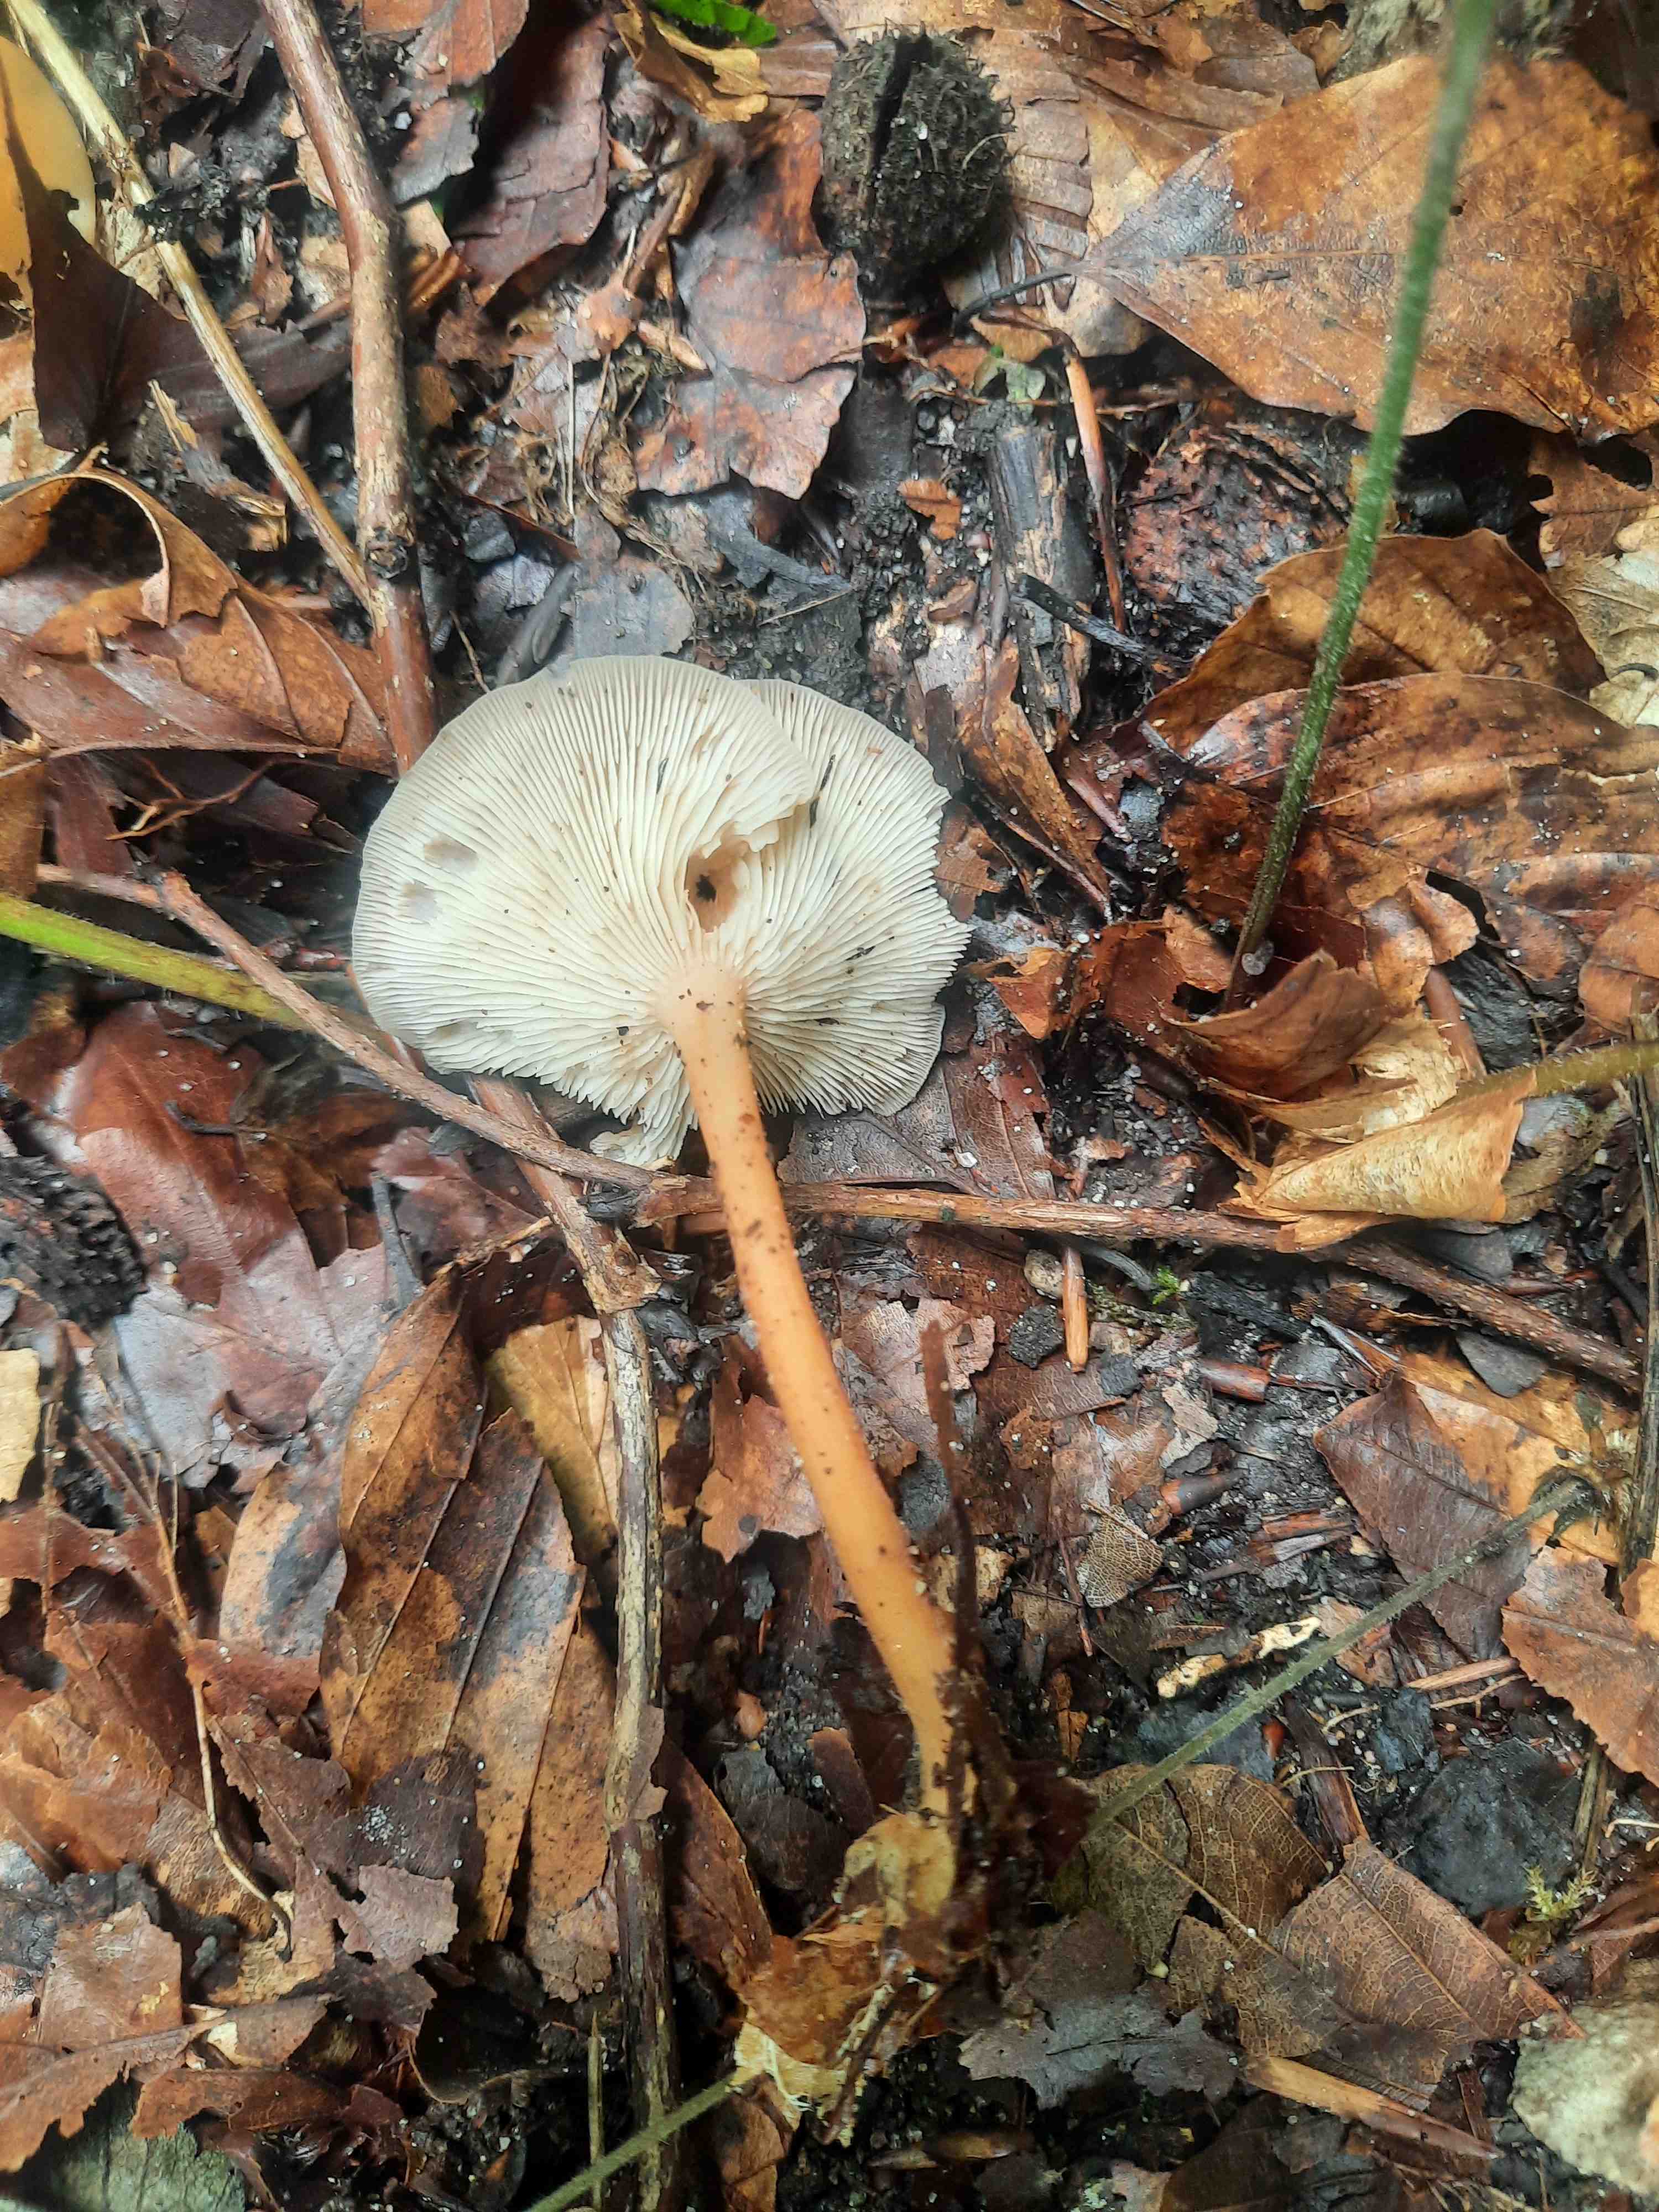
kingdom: Fungi
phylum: Basidiomycota
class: Agaricomycetes
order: Agaricales
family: Omphalotaceae
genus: Gymnopus
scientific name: Gymnopus
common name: fladhat
